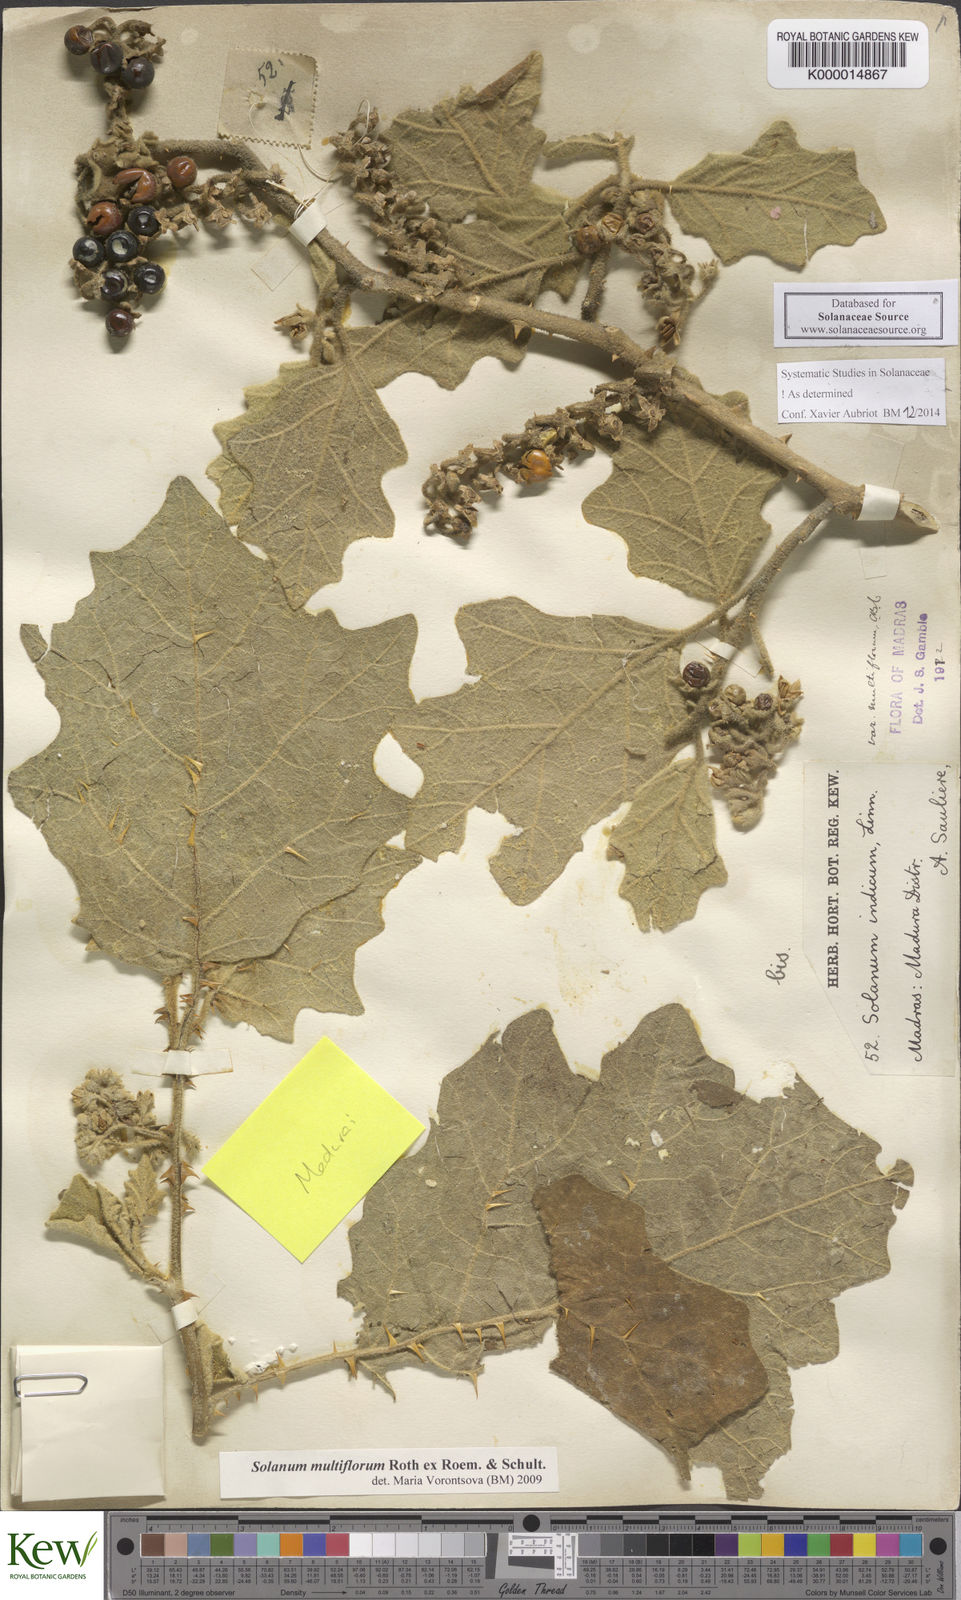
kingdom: Plantae
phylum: Tracheophyta
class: Magnoliopsida
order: Solanales
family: Solanaceae
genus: Solanum
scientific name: Solanum multiflorum
